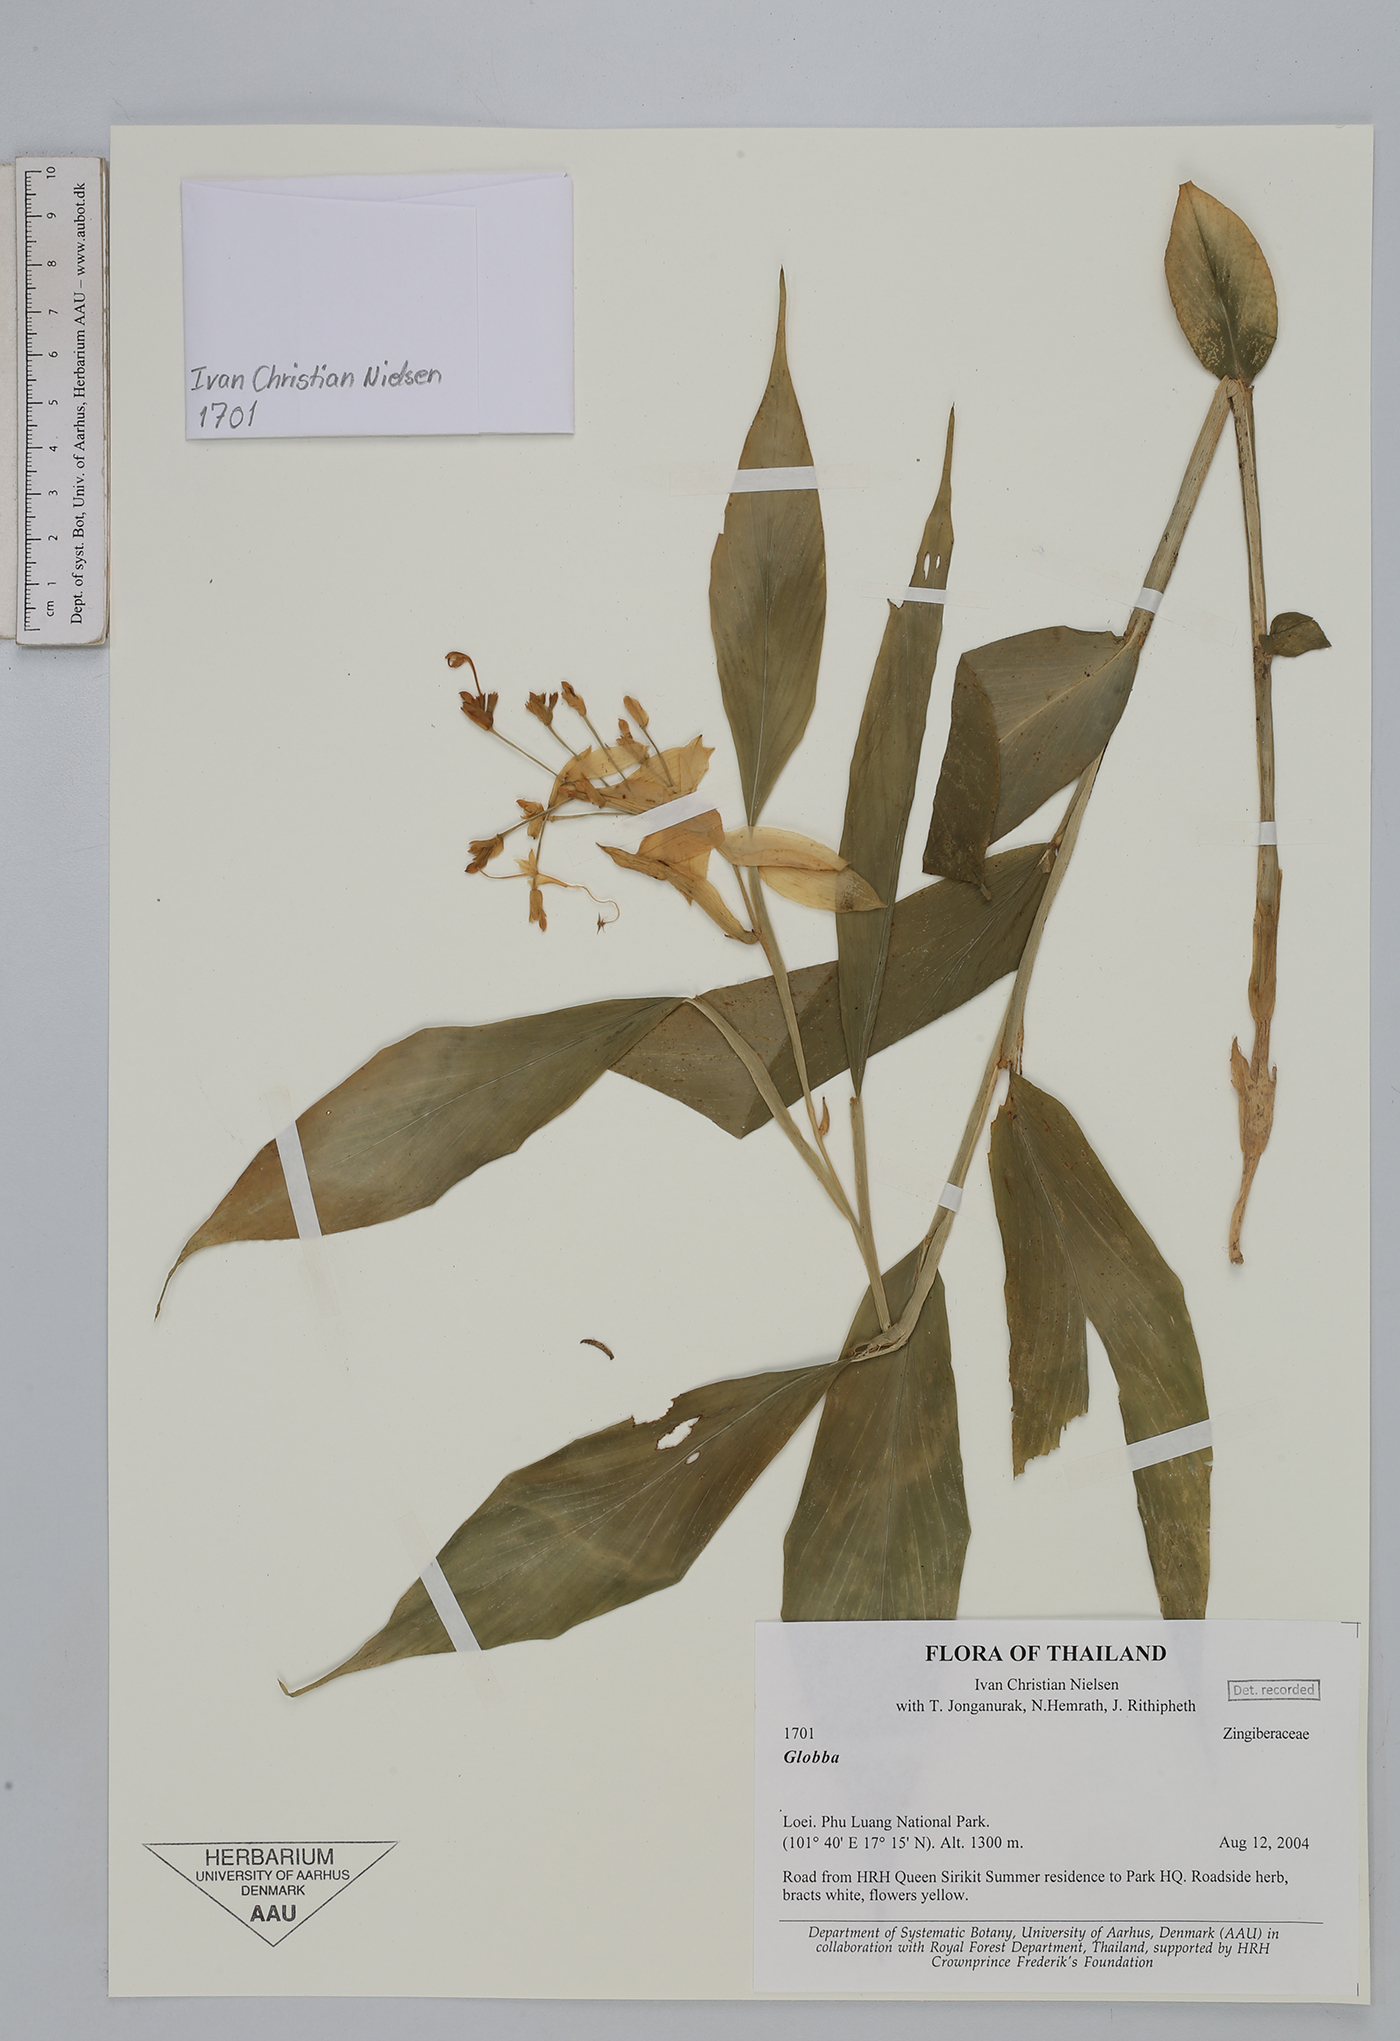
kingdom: Plantae
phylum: Tracheophyta
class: Liliopsida
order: Zingiberales
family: Zingiberaceae
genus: Globba
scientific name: Globba
